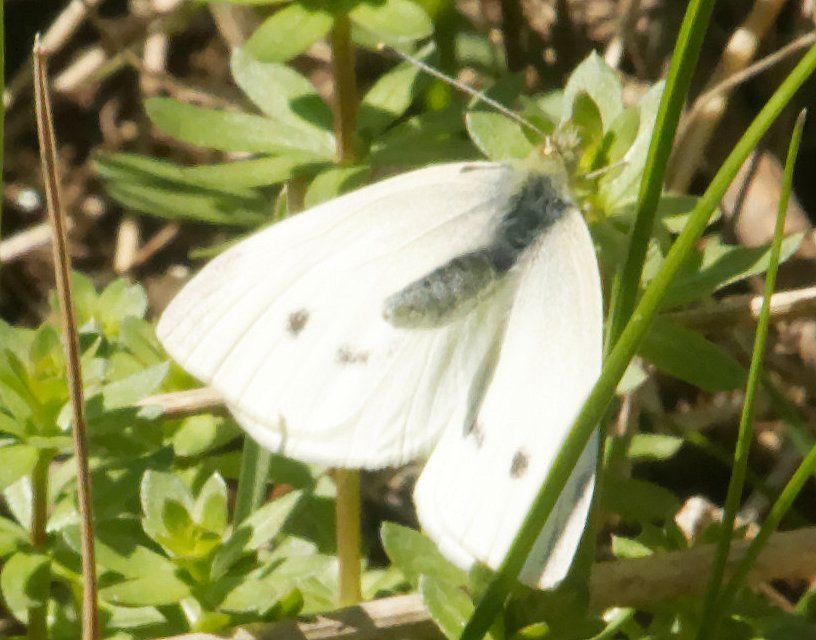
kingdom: Animalia
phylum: Arthropoda
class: Insecta
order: Lepidoptera
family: Pieridae
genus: Pieris
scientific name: Pieris rapae
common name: Cabbage White
